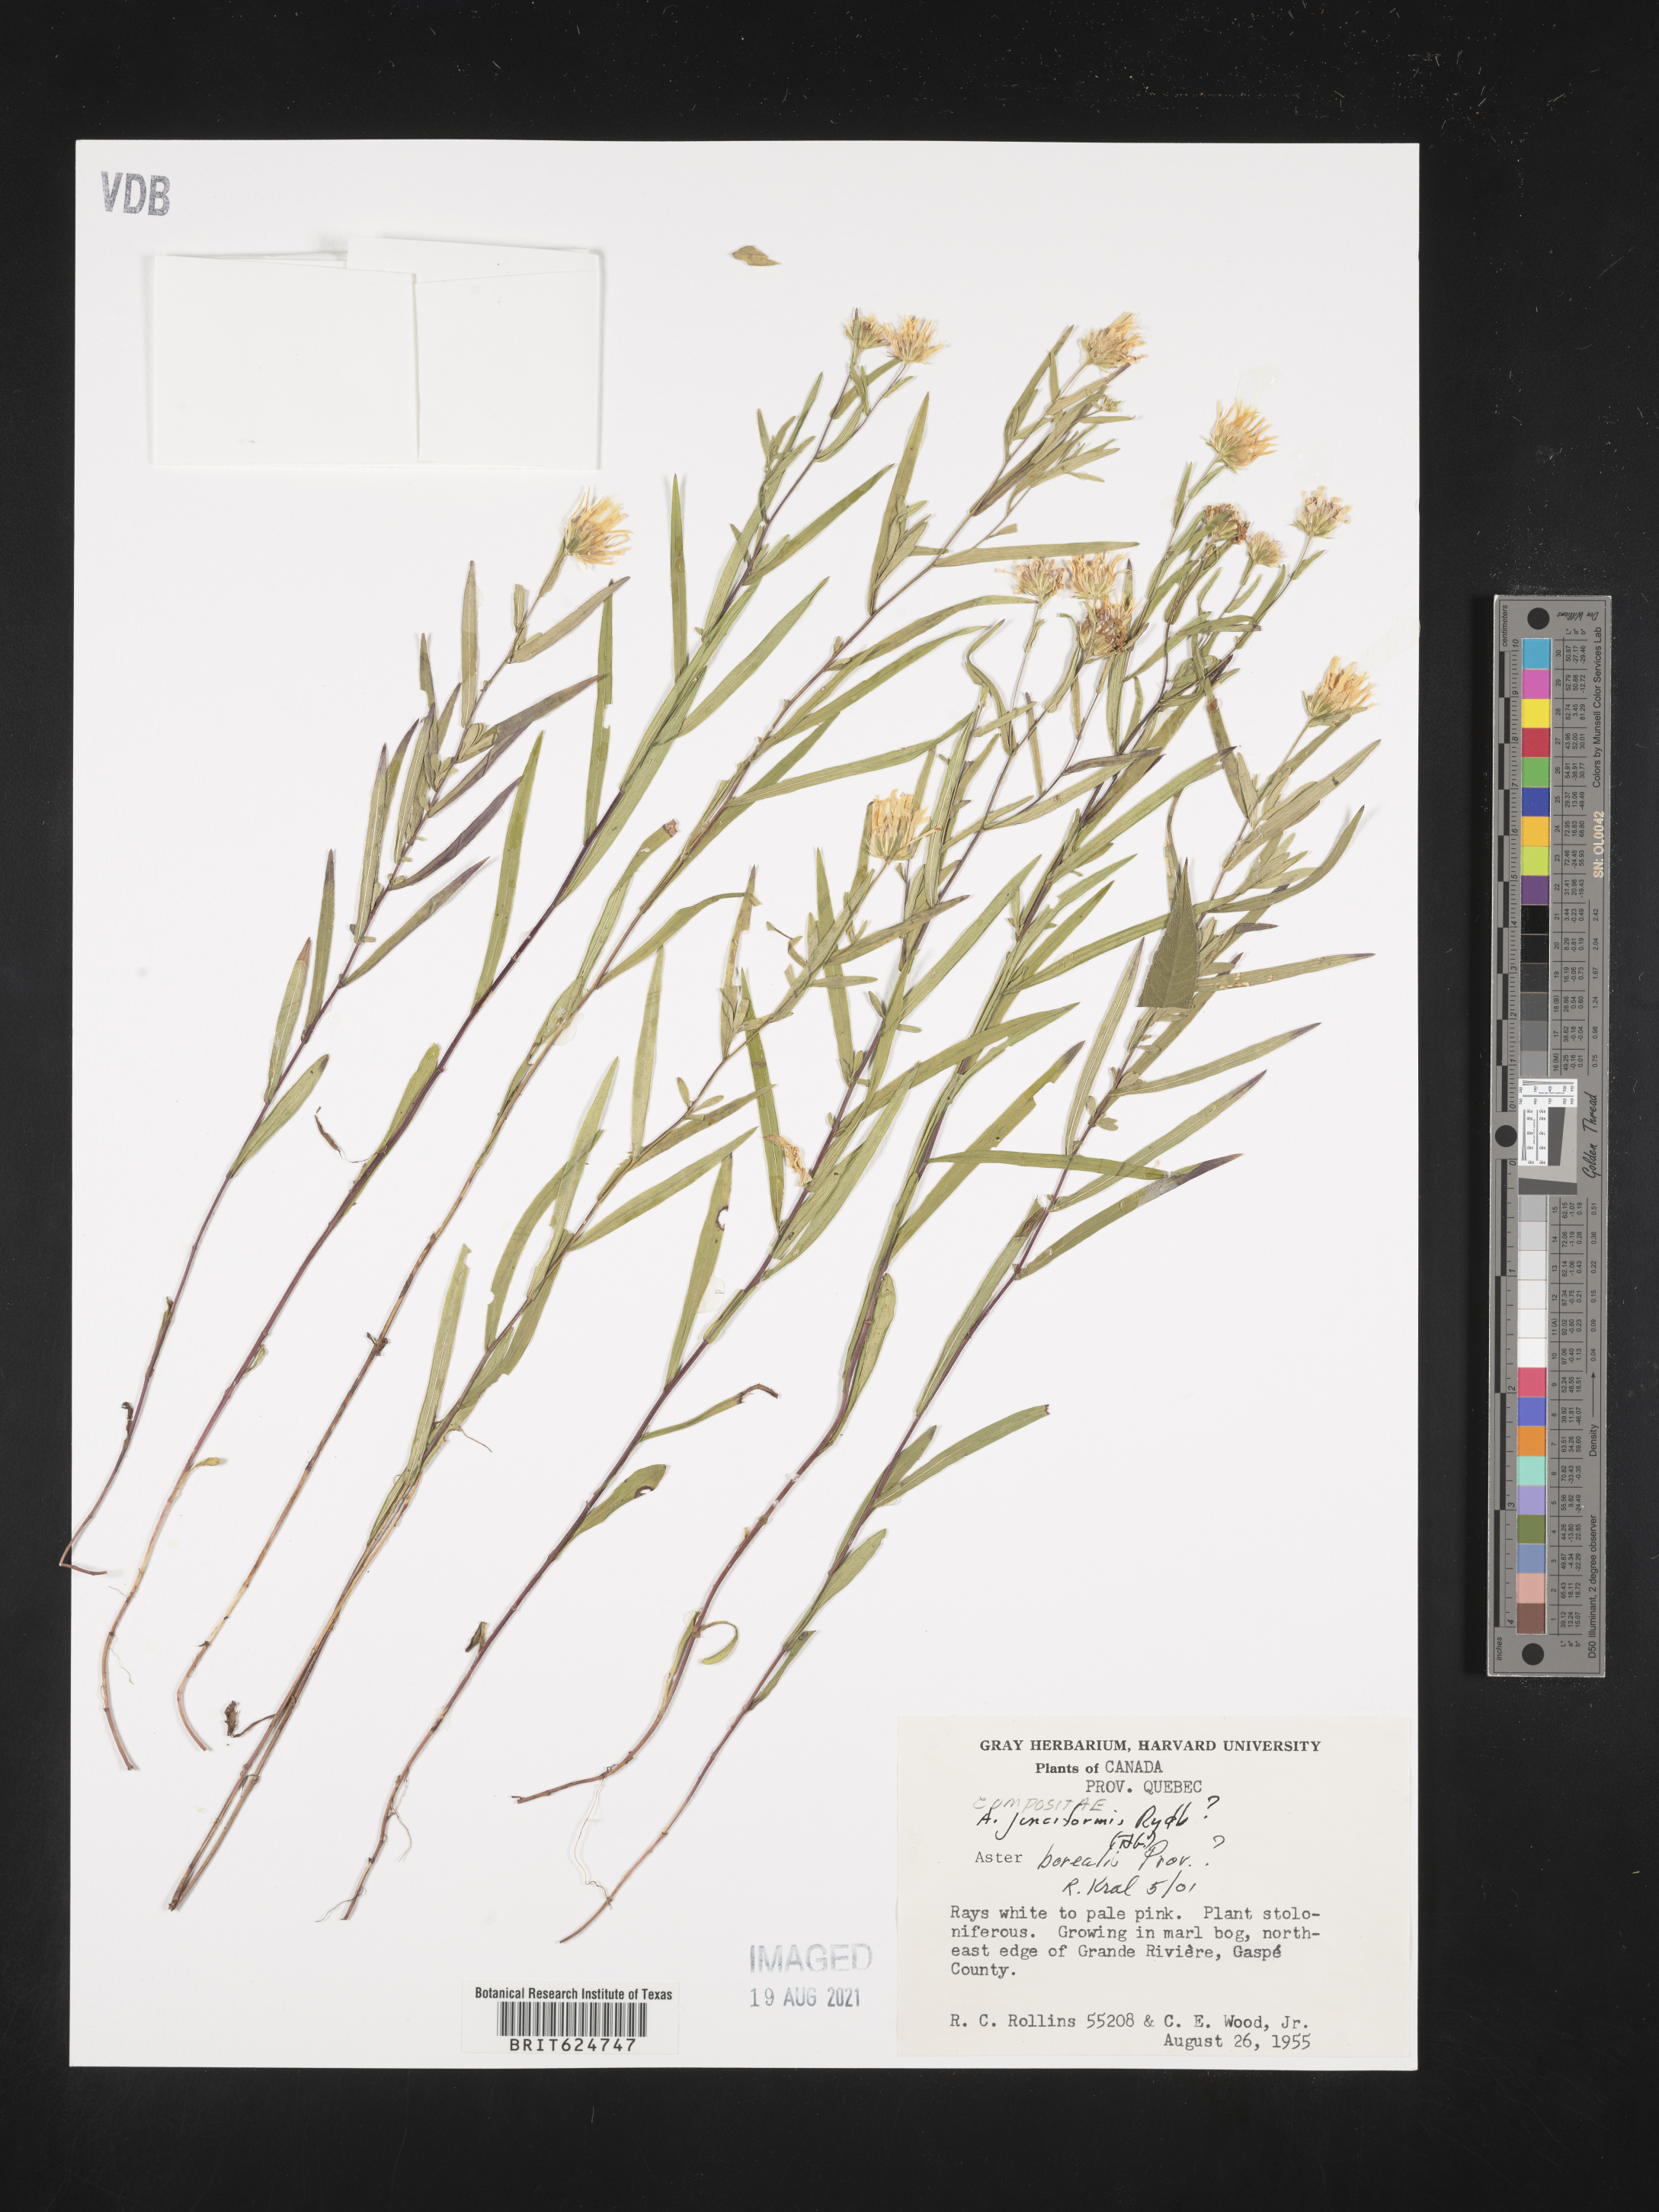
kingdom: Plantae
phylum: Tracheophyta
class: Magnoliopsida
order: Asterales
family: Asteraceae
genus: Symphyotrichum
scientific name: Symphyotrichum boreale
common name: Northern bog aster
